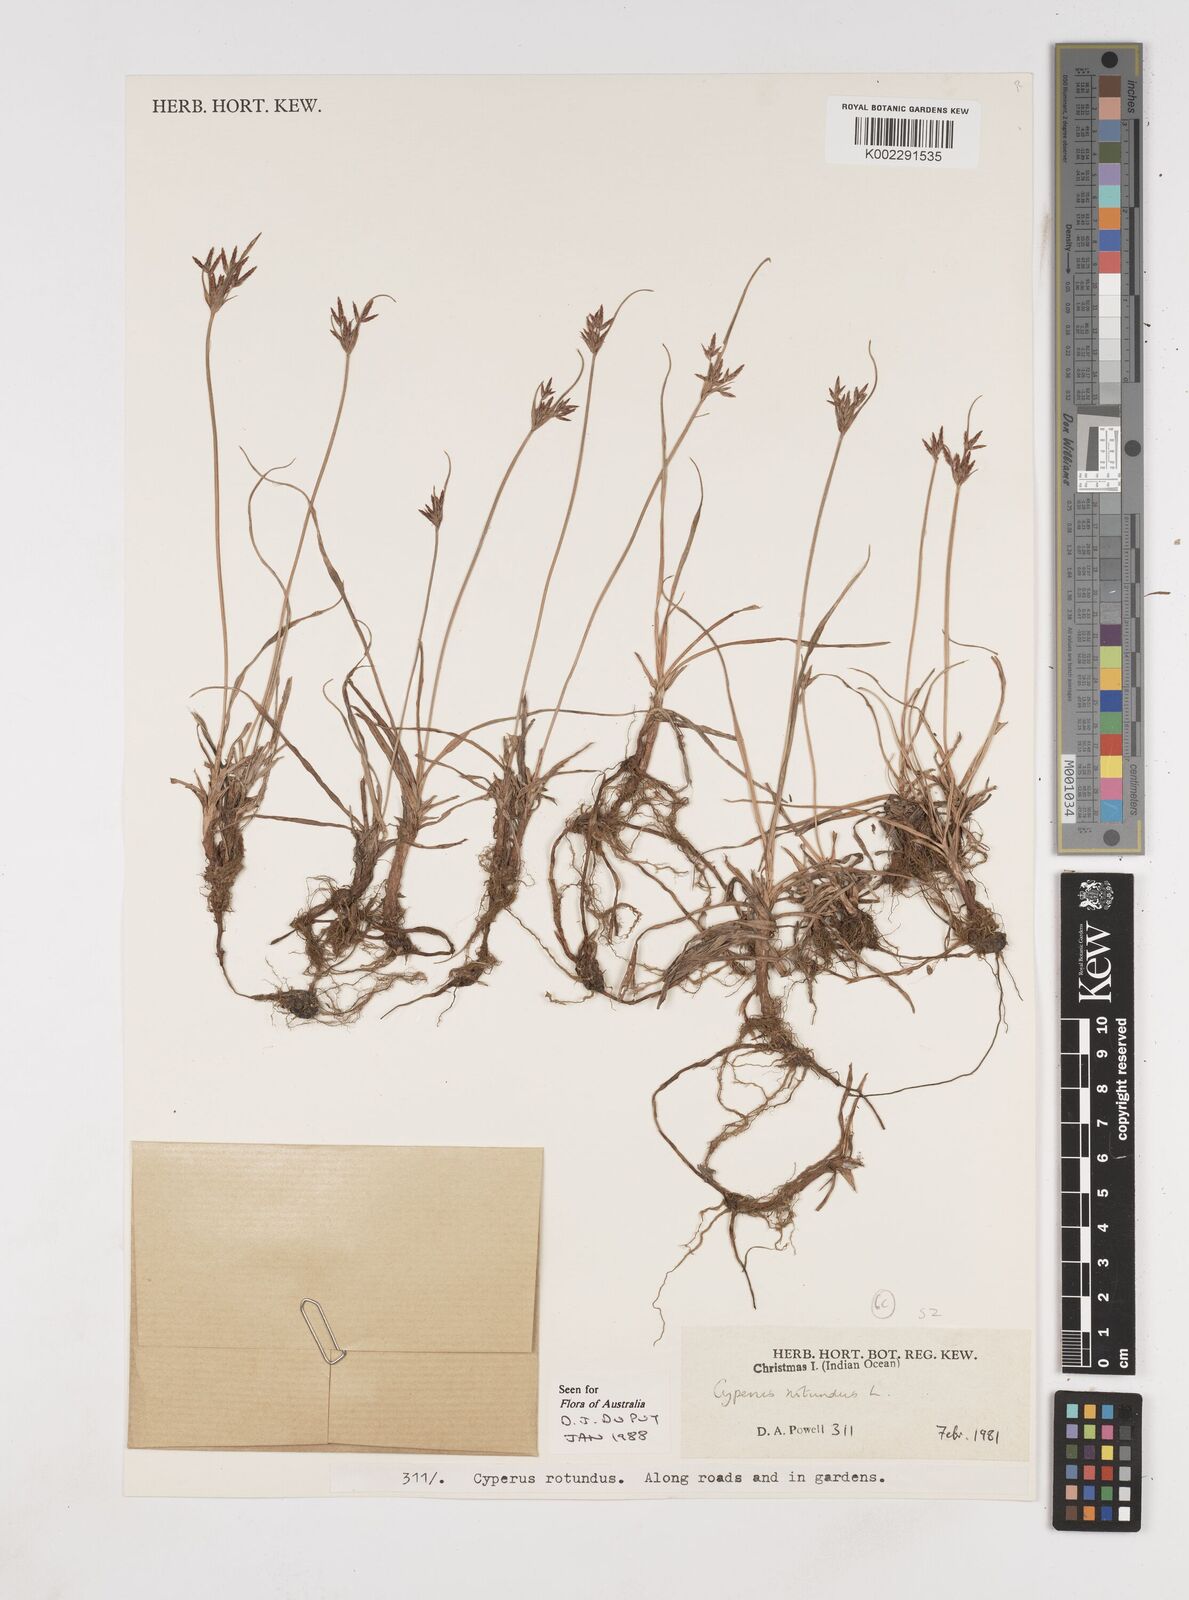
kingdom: Plantae
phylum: Tracheophyta
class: Liliopsida
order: Poales
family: Cyperaceae
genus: Cyperus
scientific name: Cyperus rotundus
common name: Nutgrass
